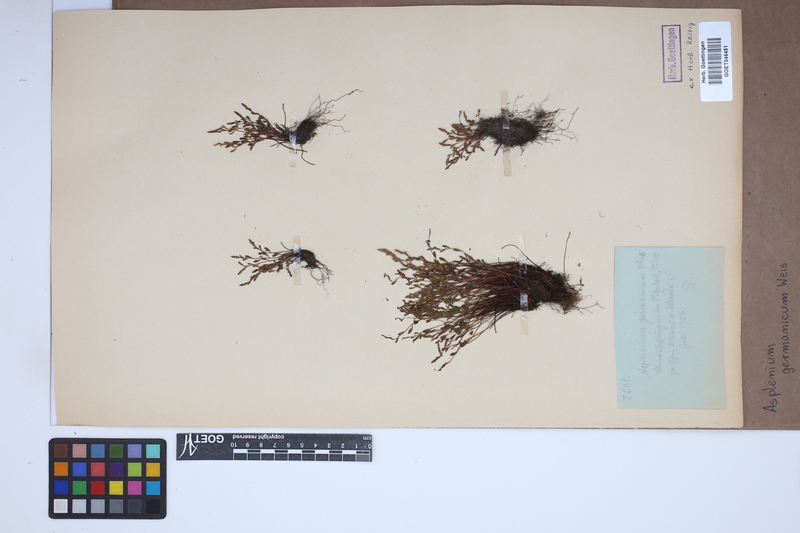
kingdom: Plantae
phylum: Tracheophyta
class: Polypodiopsida
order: Polypodiales
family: Aspleniaceae
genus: Asplenium
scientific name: Asplenium
